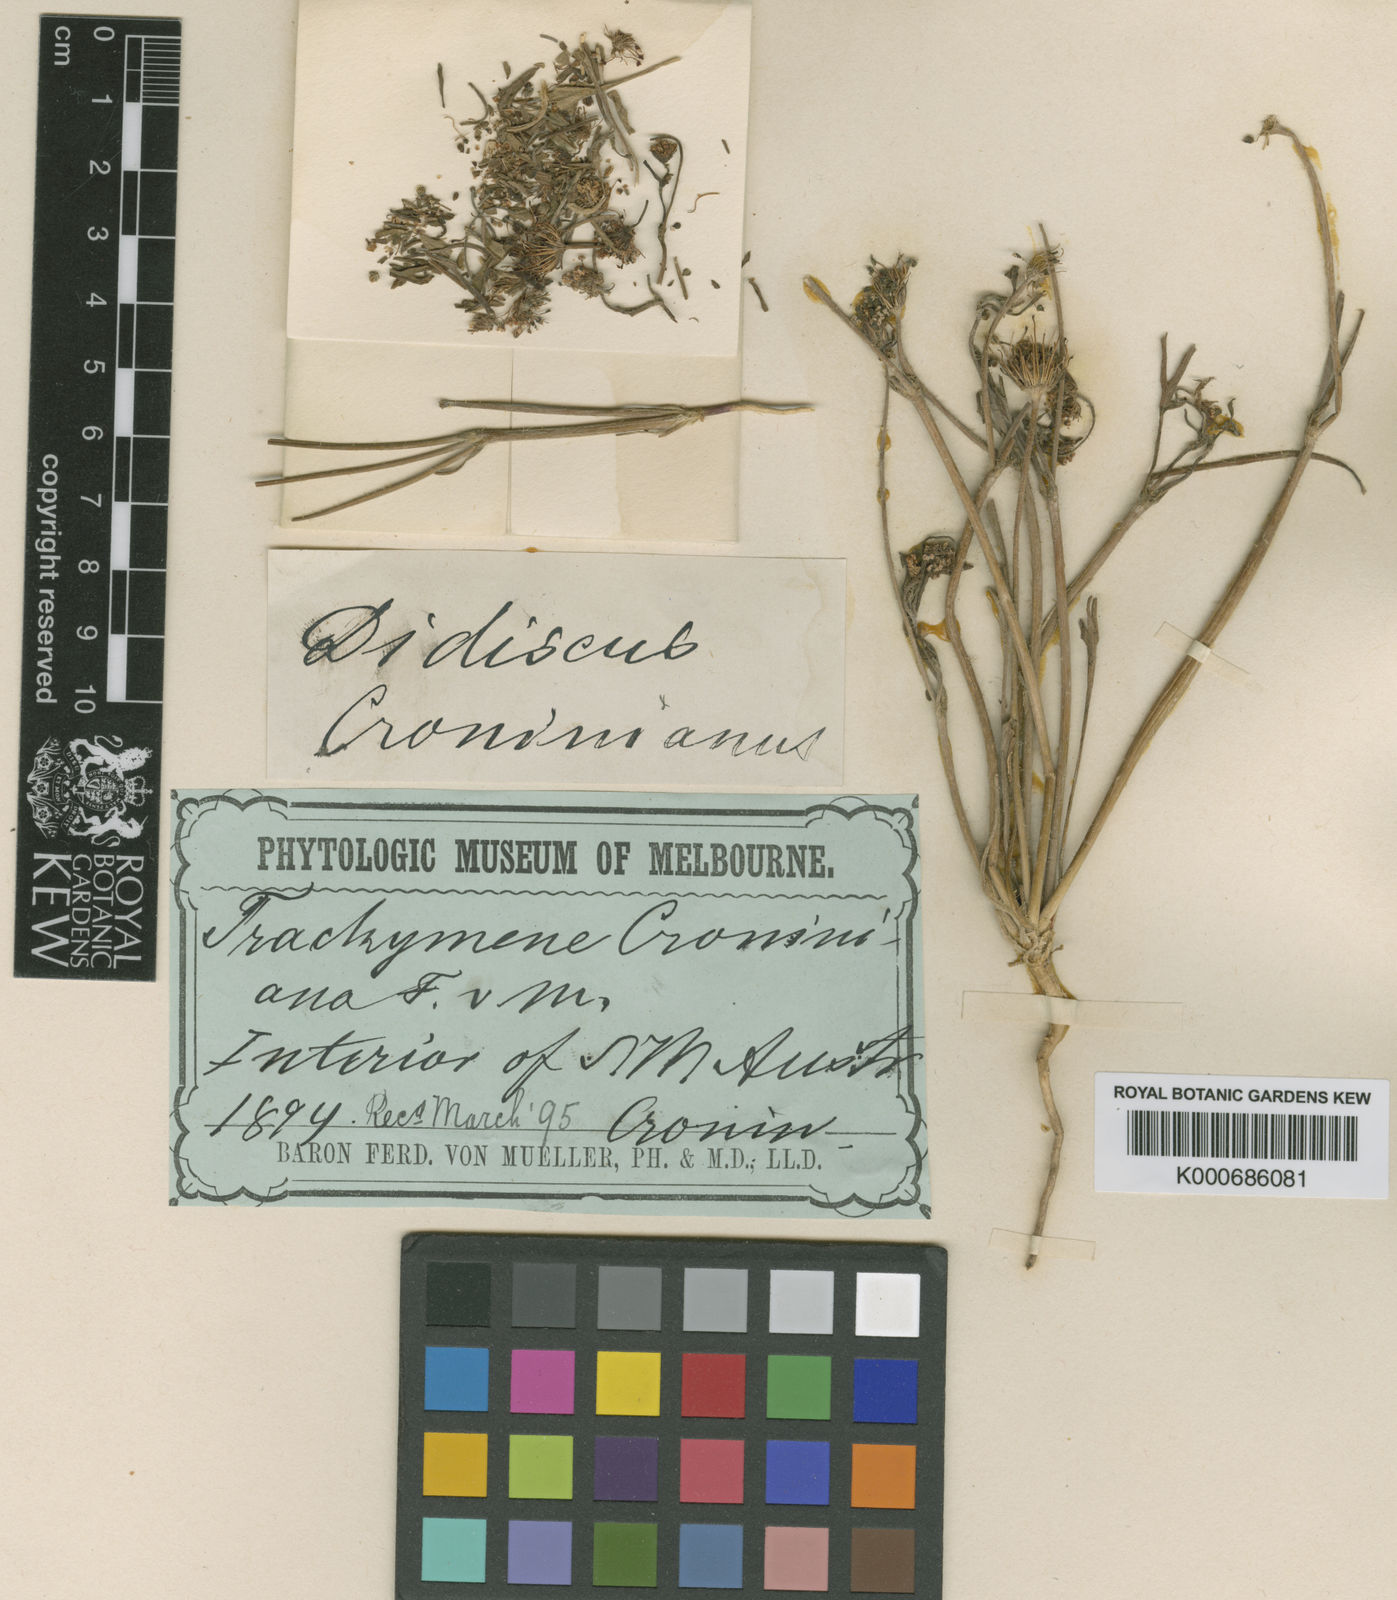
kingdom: Plantae
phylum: Tracheophyta
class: Magnoliopsida
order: Apiales
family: Araliaceae
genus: Trachymene
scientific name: Trachymene croniniana
